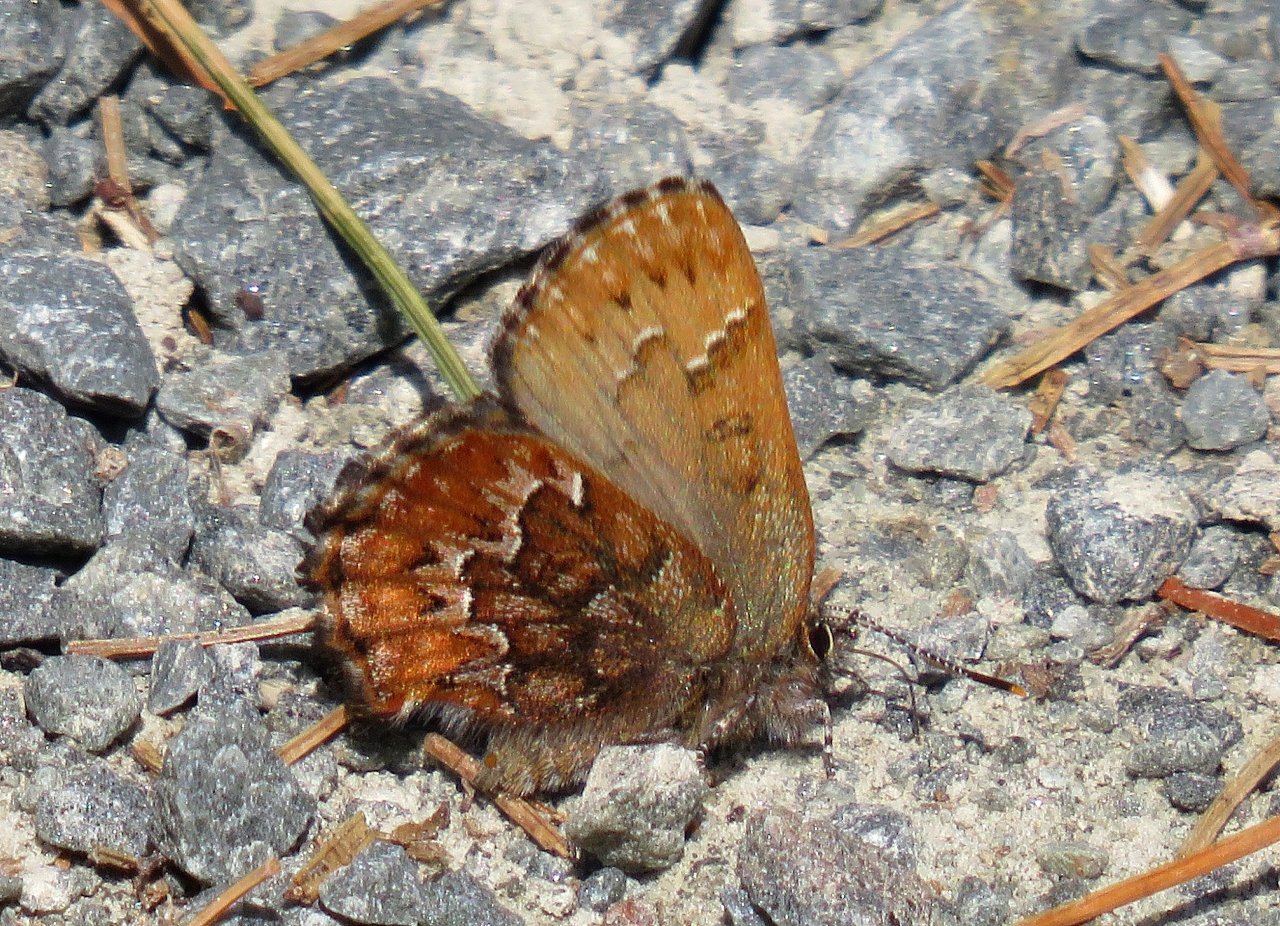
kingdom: Animalia
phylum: Arthropoda
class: Insecta
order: Lepidoptera
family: Lycaenidae
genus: Incisalia
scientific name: Incisalia niphon
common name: Eastern Pine Elfin
